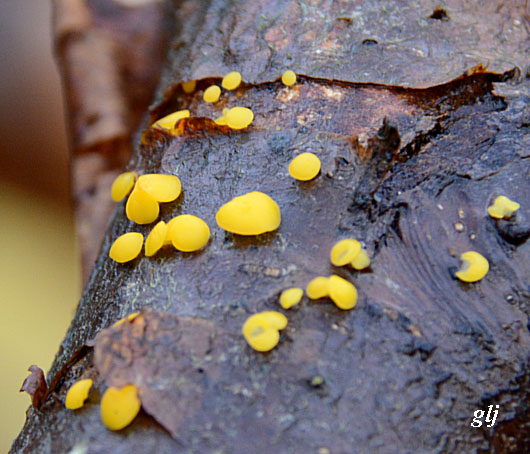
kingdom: Fungi
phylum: Ascomycota
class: Leotiomycetes
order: Helotiales
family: Pezizellaceae
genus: Calycina
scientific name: Calycina citrina
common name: almindelig gulskive
